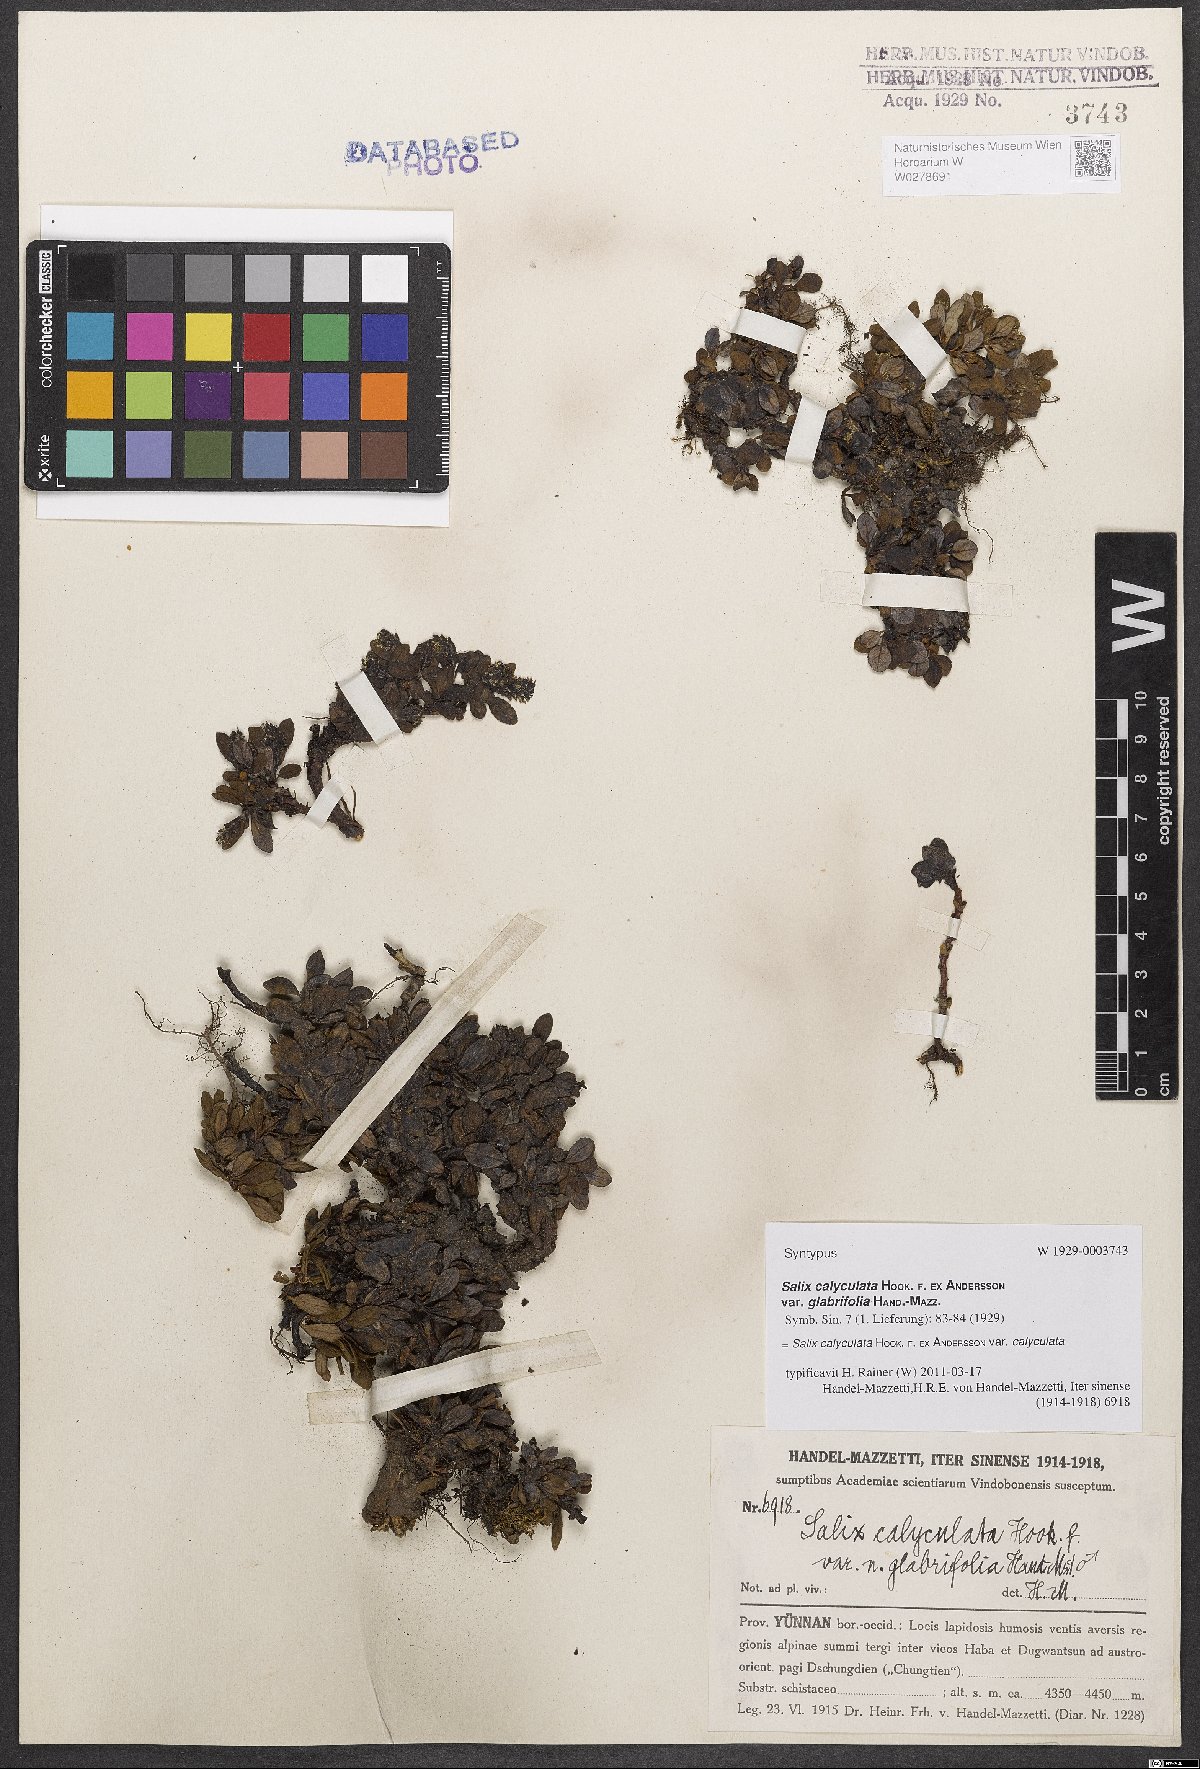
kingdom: Plantae
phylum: Tracheophyta
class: Magnoliopsida
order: Malpighiales
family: Salicaceae
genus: Salix
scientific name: Salix lindleyana
